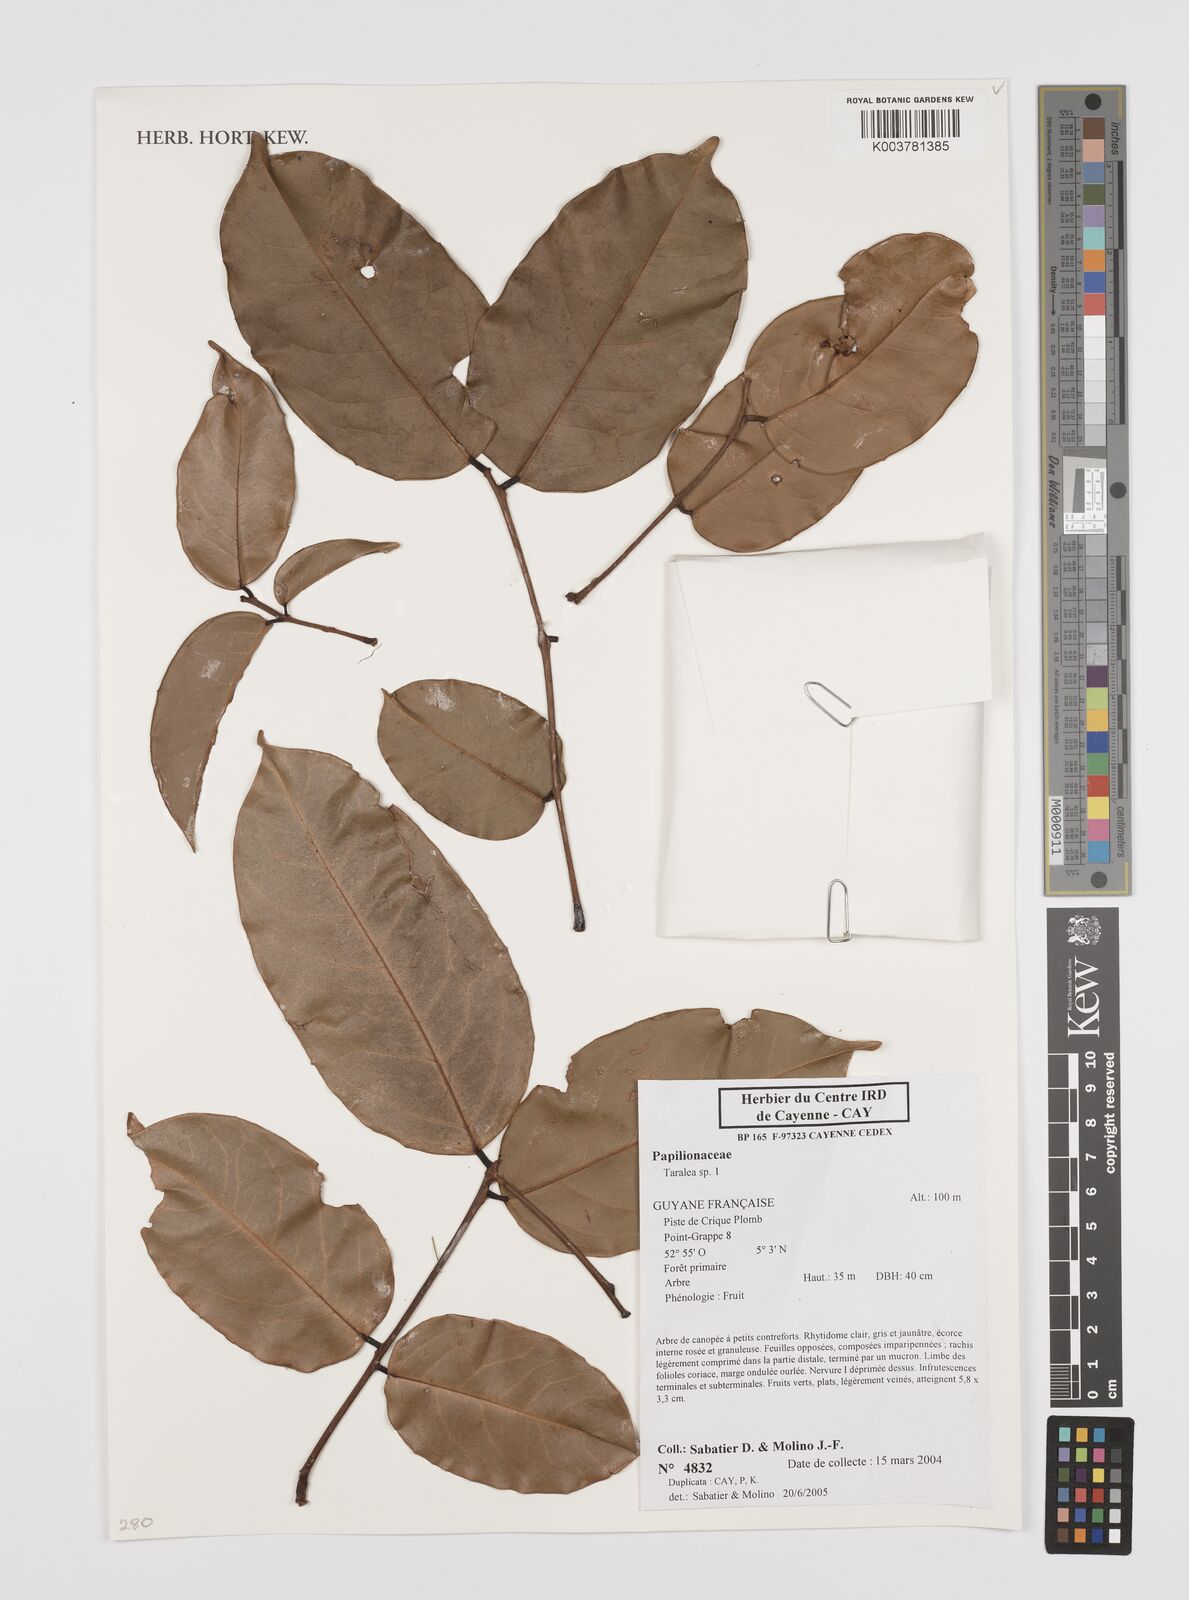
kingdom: Plantae
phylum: Tracheophyta
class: Magnoliopsida
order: Fabales
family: Fabaceae
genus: Taralea
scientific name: Taralea
